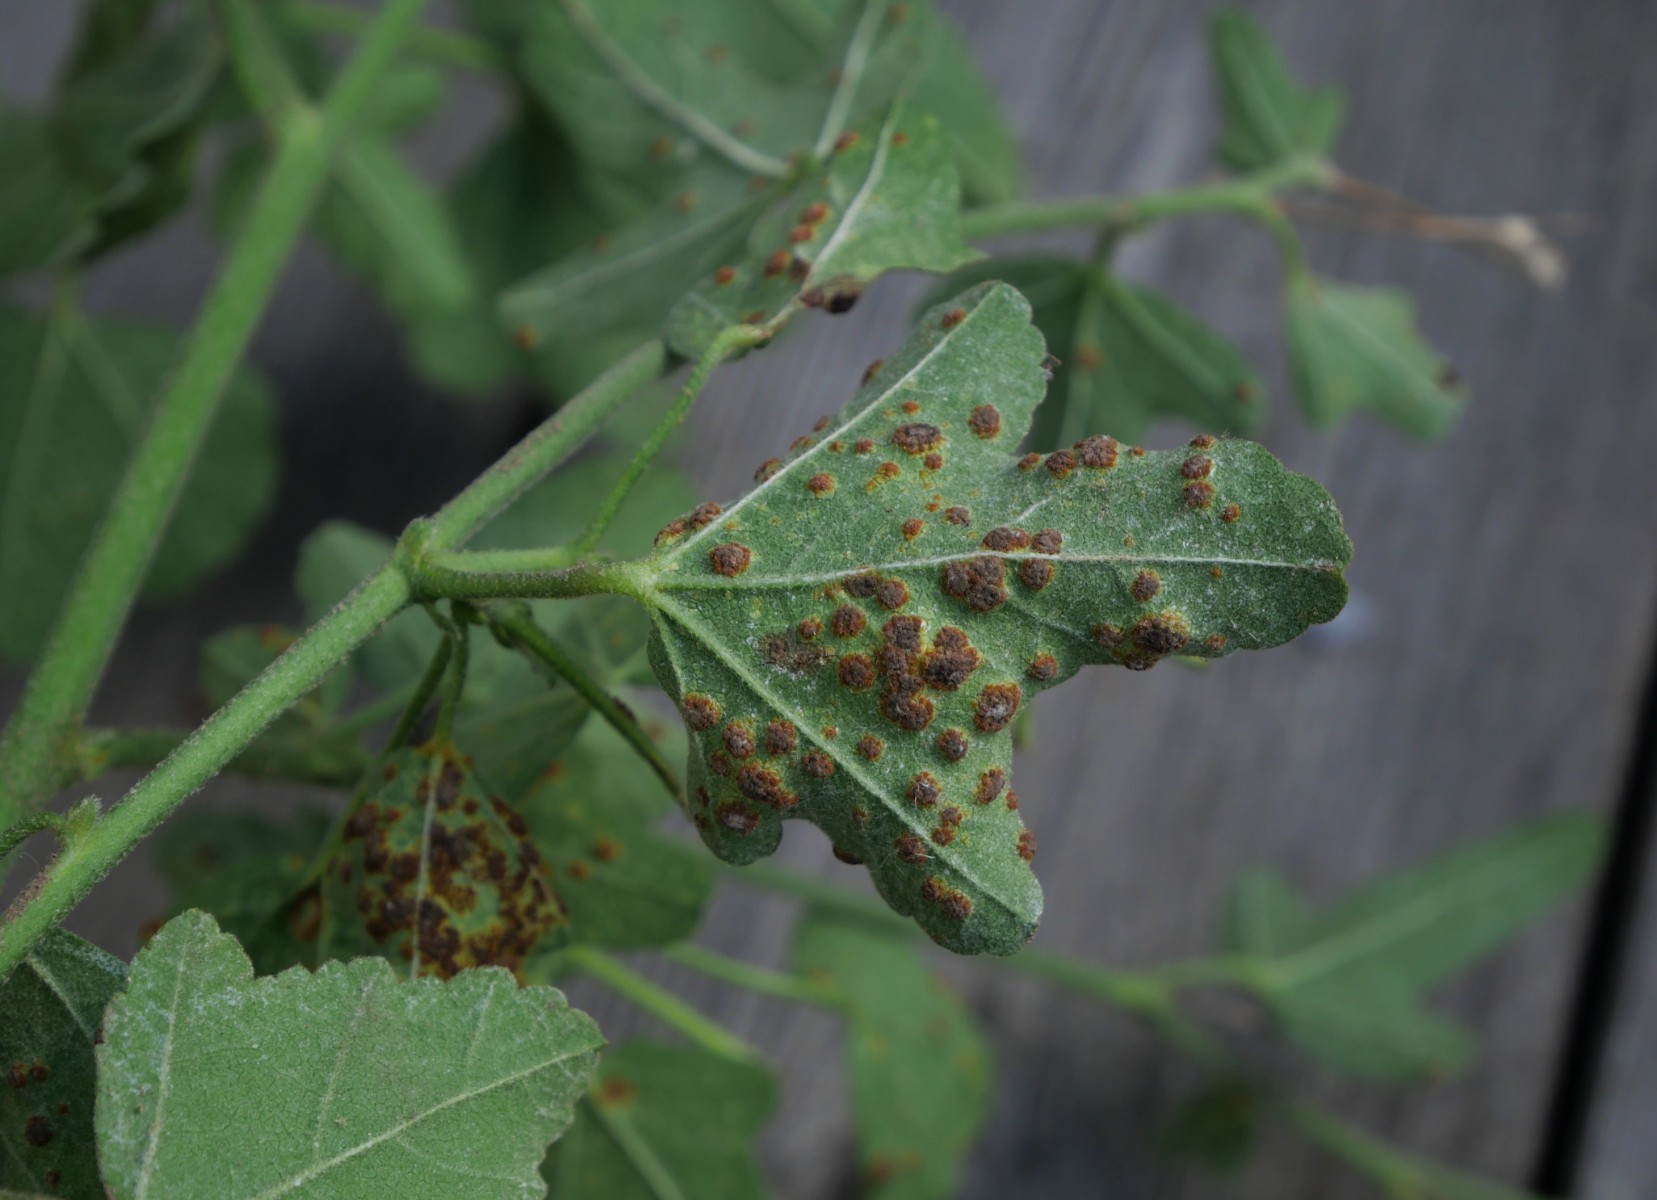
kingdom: Fungi
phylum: Basidiomycota
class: Pucciniomycetes
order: Pucciniales
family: Pucciniaceae
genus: Puccinia
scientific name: Puccinia malvacearum
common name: stokrose-tvecellerust
